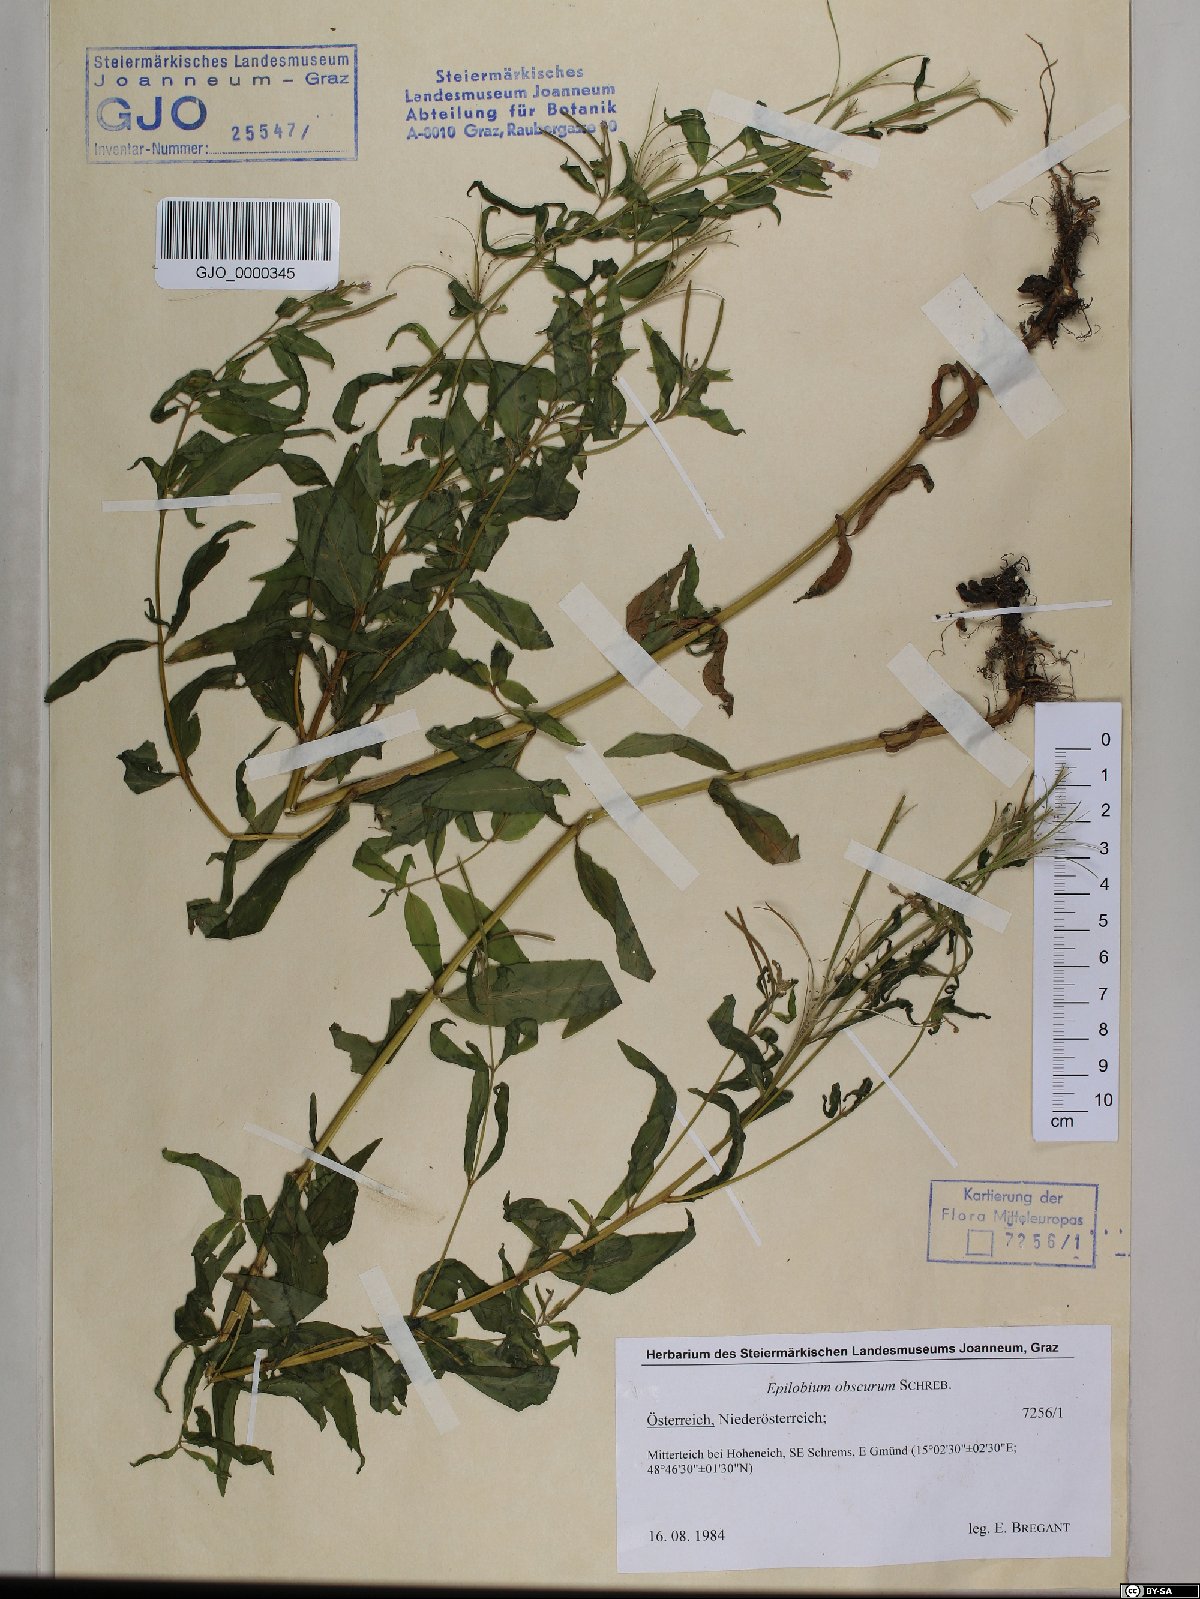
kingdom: Plantae
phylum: Tracheophyta
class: Magnoliopsida
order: Myrtales
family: Onagraceae
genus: Epilobium
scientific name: Epilobium obscurum
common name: Short-fruited willowherb
